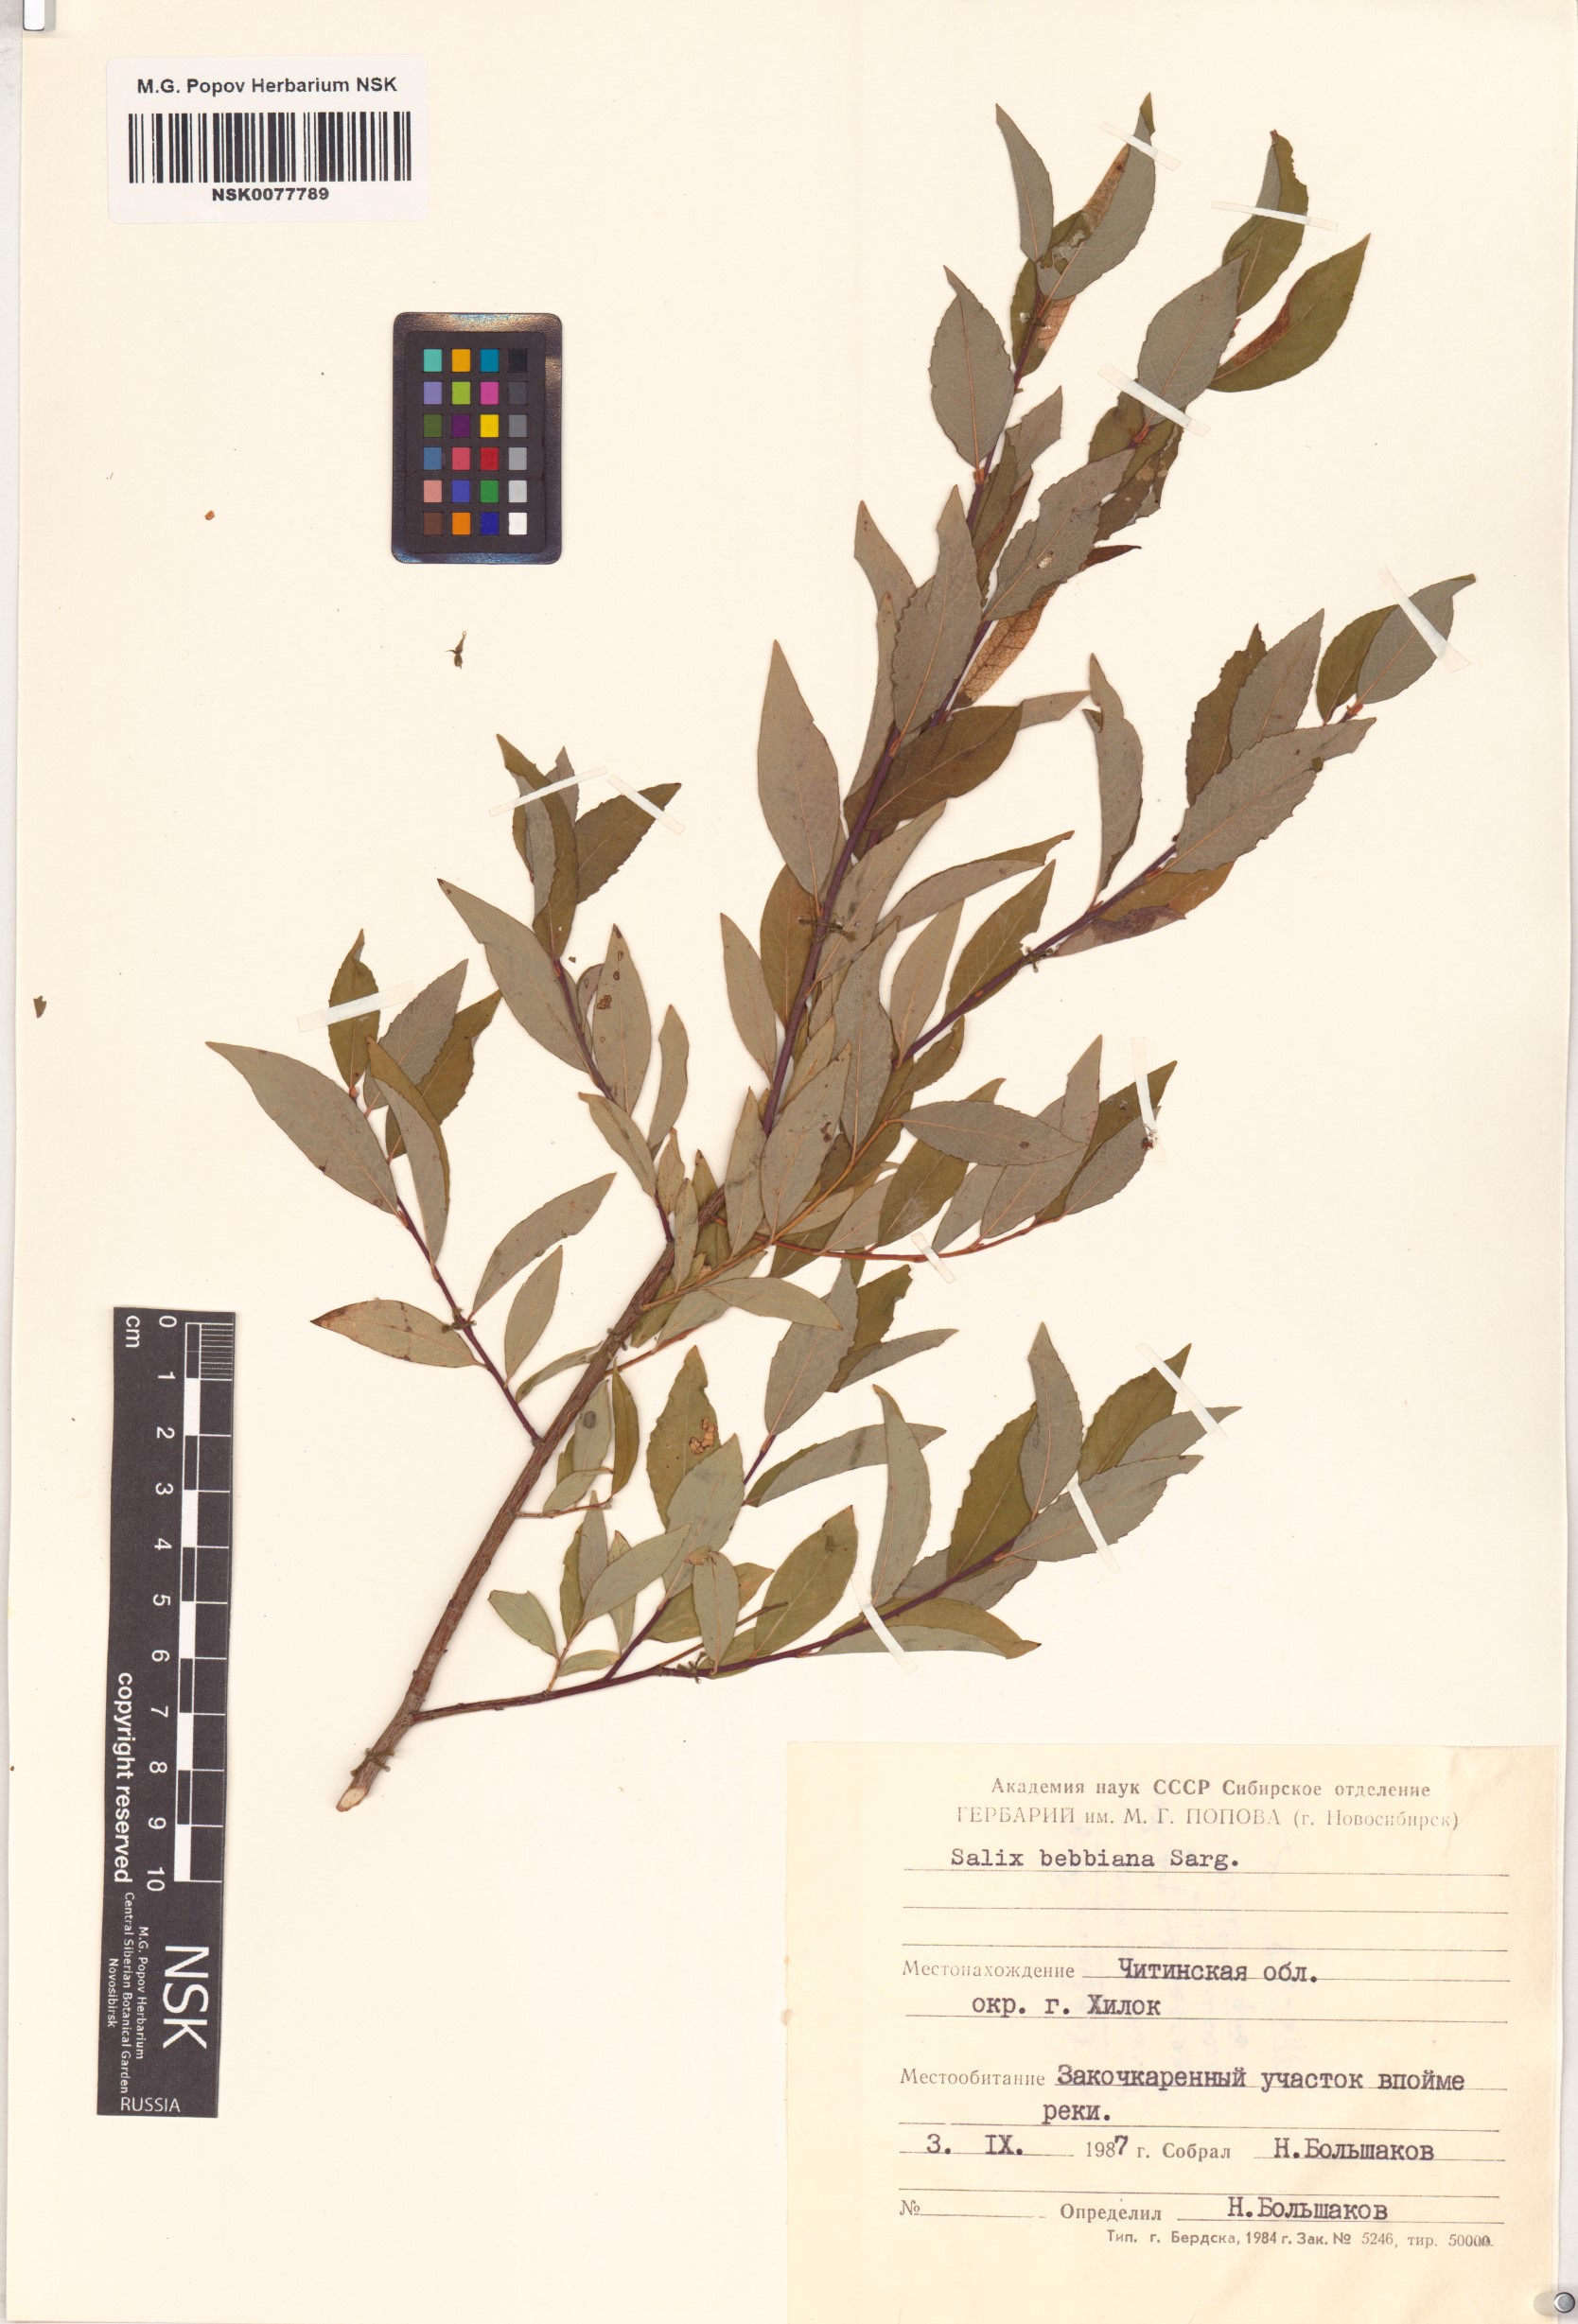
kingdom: Plantae
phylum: Tracheophyta
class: Magnoliopsida
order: Malpighiales
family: Salicaceae
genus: Salix
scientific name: Salix bebbiana
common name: Bebb's willow
